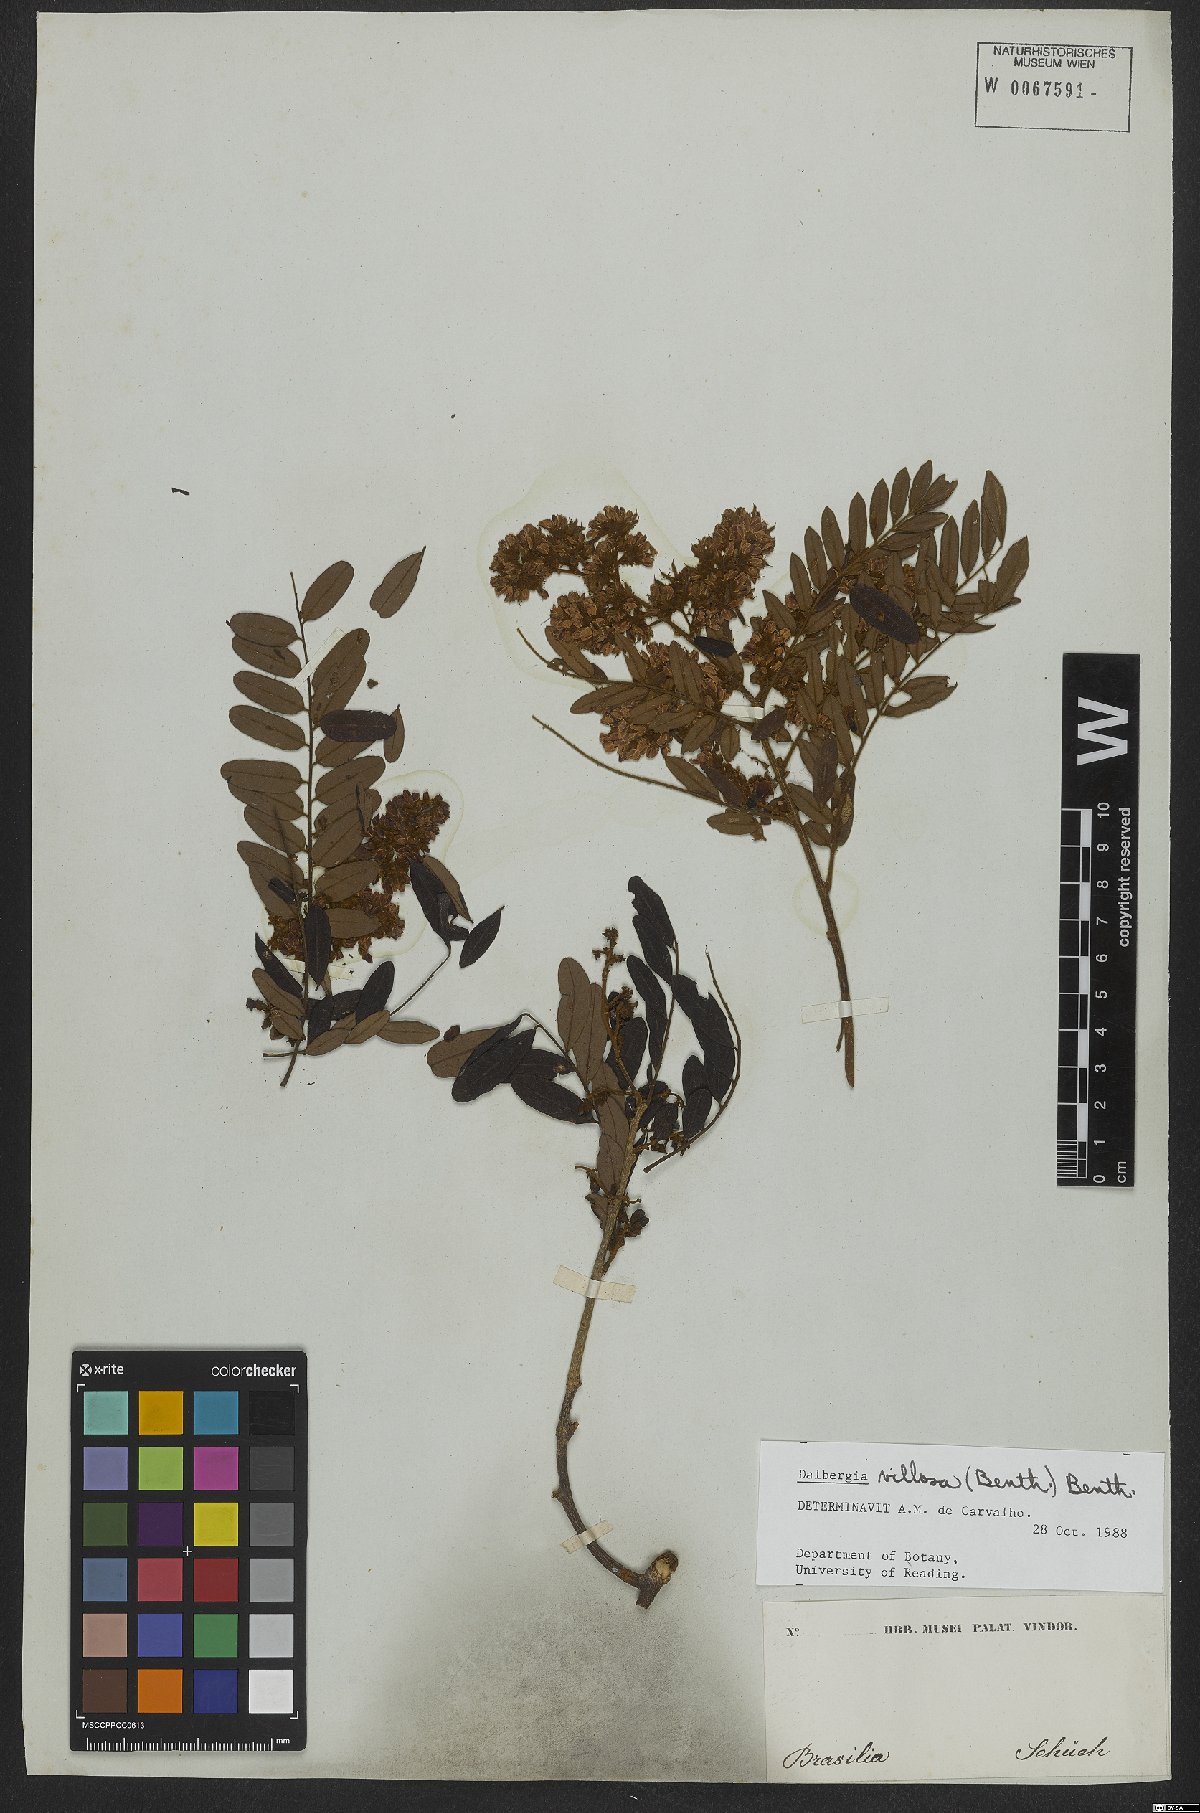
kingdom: Plantae
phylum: Tracheophyta
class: Magnoliopsida
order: Fabales
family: Fabaceae
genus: Dalbergia
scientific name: Dalbergia villosa
